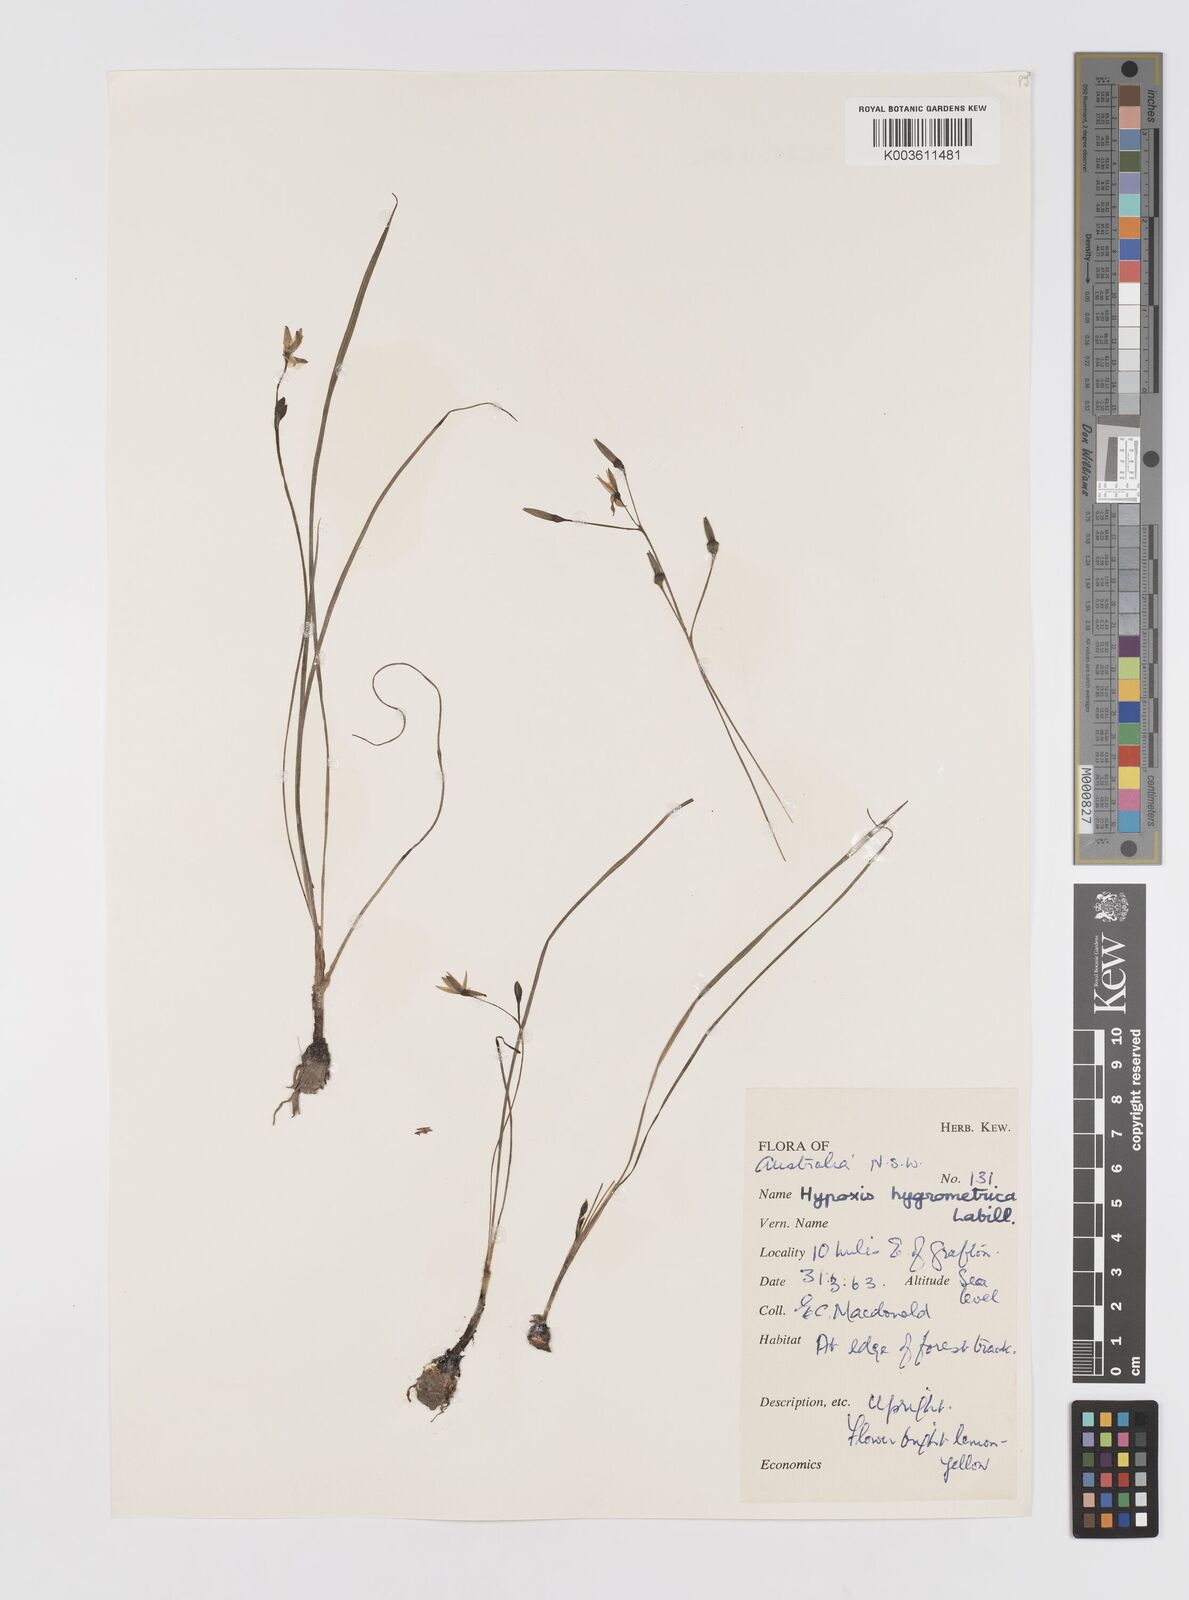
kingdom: Plantae
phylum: Tracheophyta
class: Liliopsida
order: Asparagales
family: Hypoxidaceae
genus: Hypoxis
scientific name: Hypoxis hygrometrica
